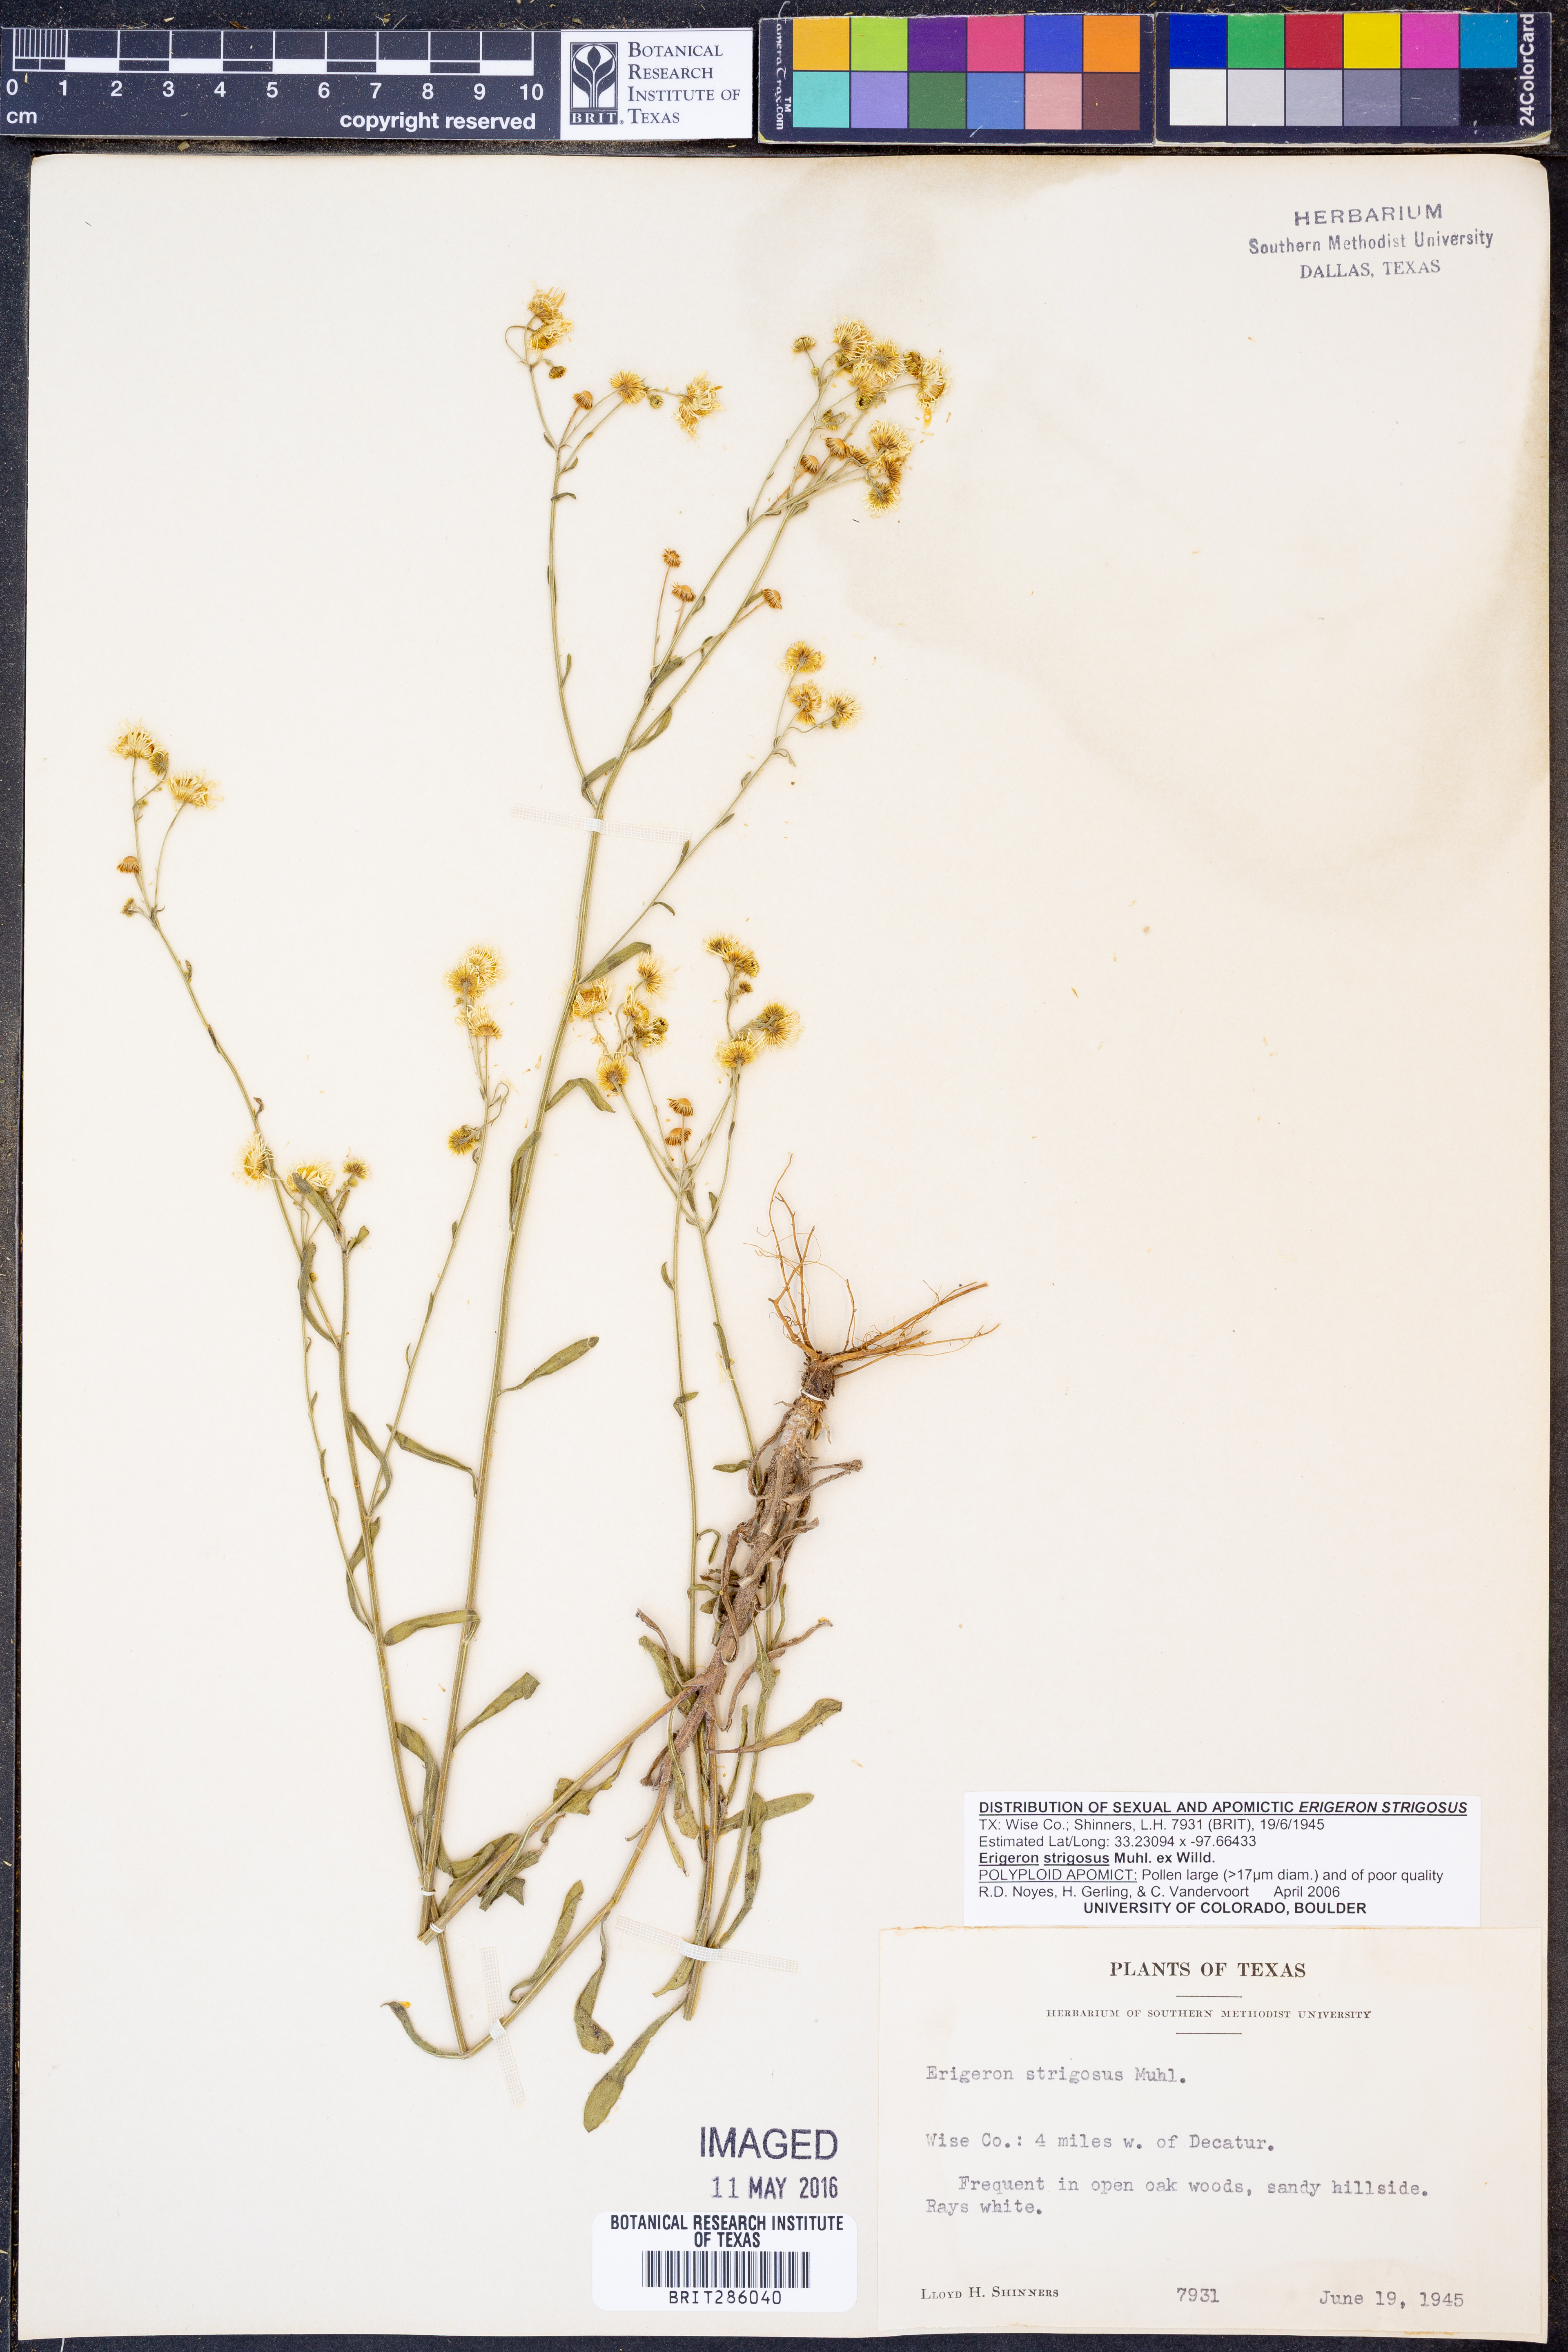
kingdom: Plantae
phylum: Tracheophyta
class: Magnoliopsida
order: Asterales
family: Asteraceae
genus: Erigeron
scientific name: Erigeron strigosus
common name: Common eastern fleabane
